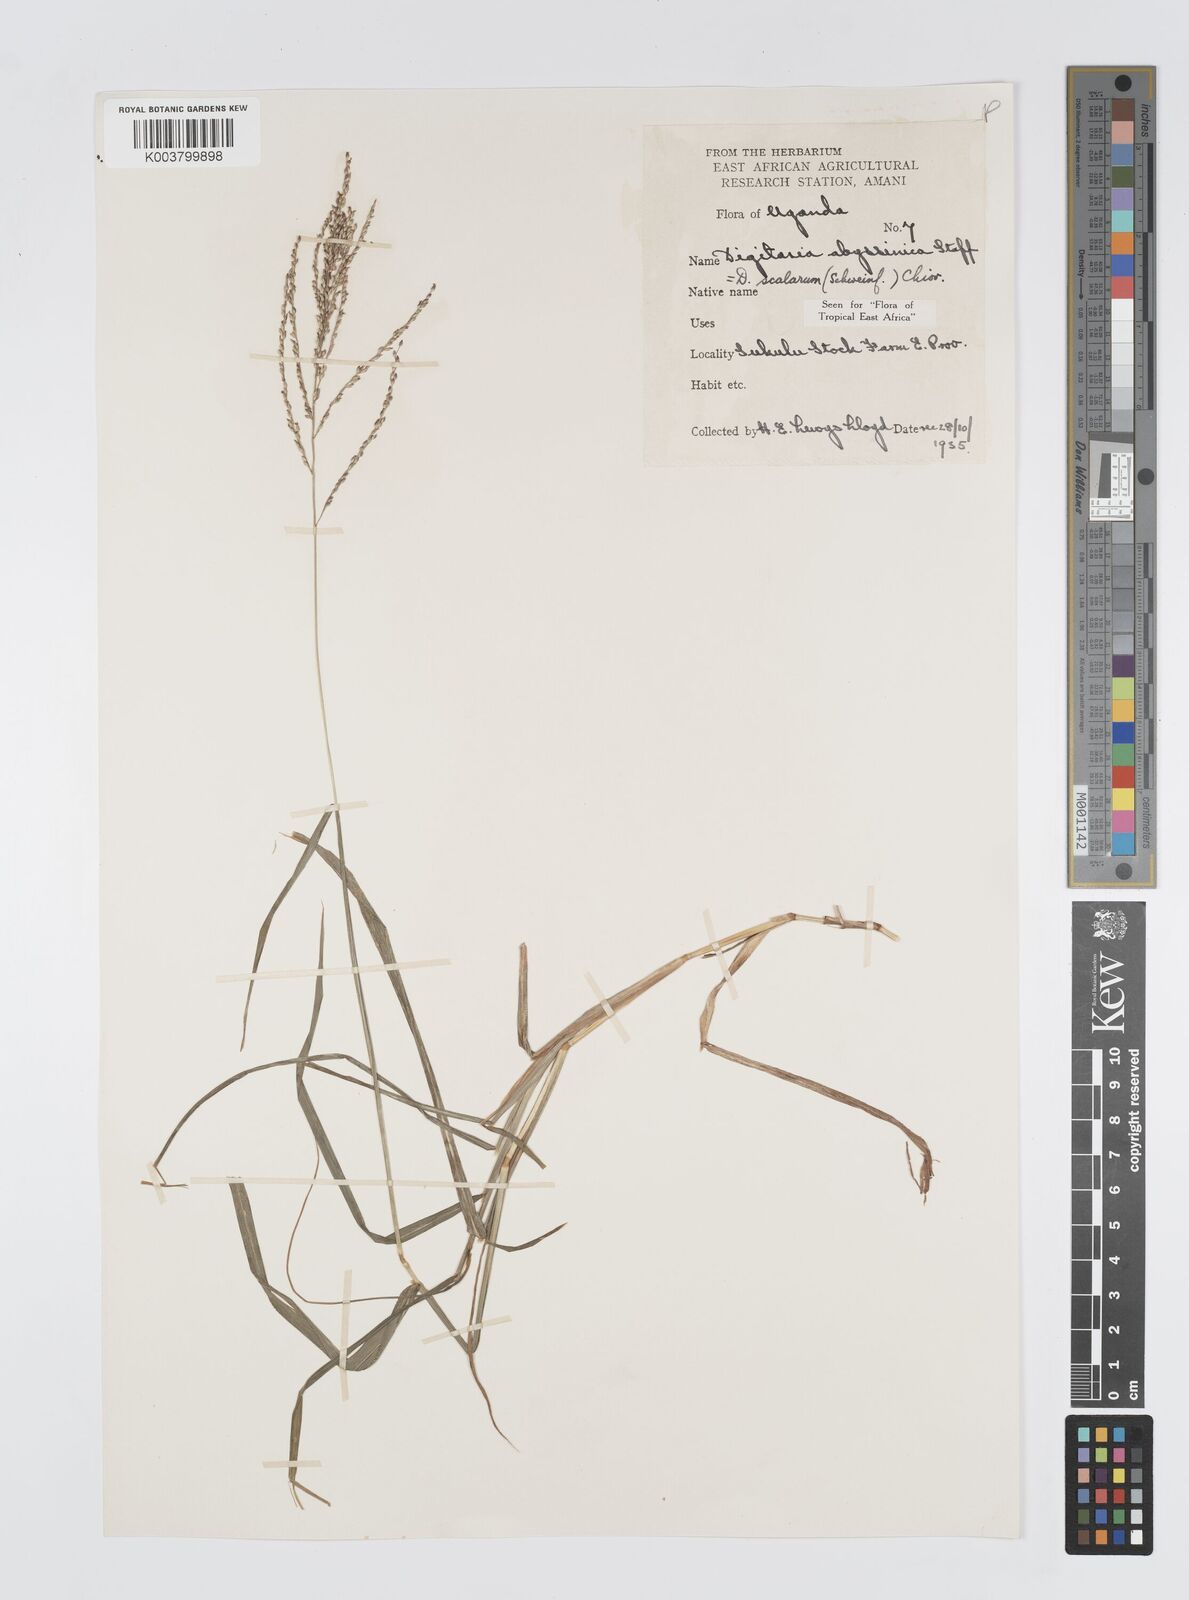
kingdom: Plantae
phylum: Tracheophyta
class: Liliopsida
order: Poales
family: Poaceae
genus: Digitaria
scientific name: Digitaria abyssinica
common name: African couchgrass
